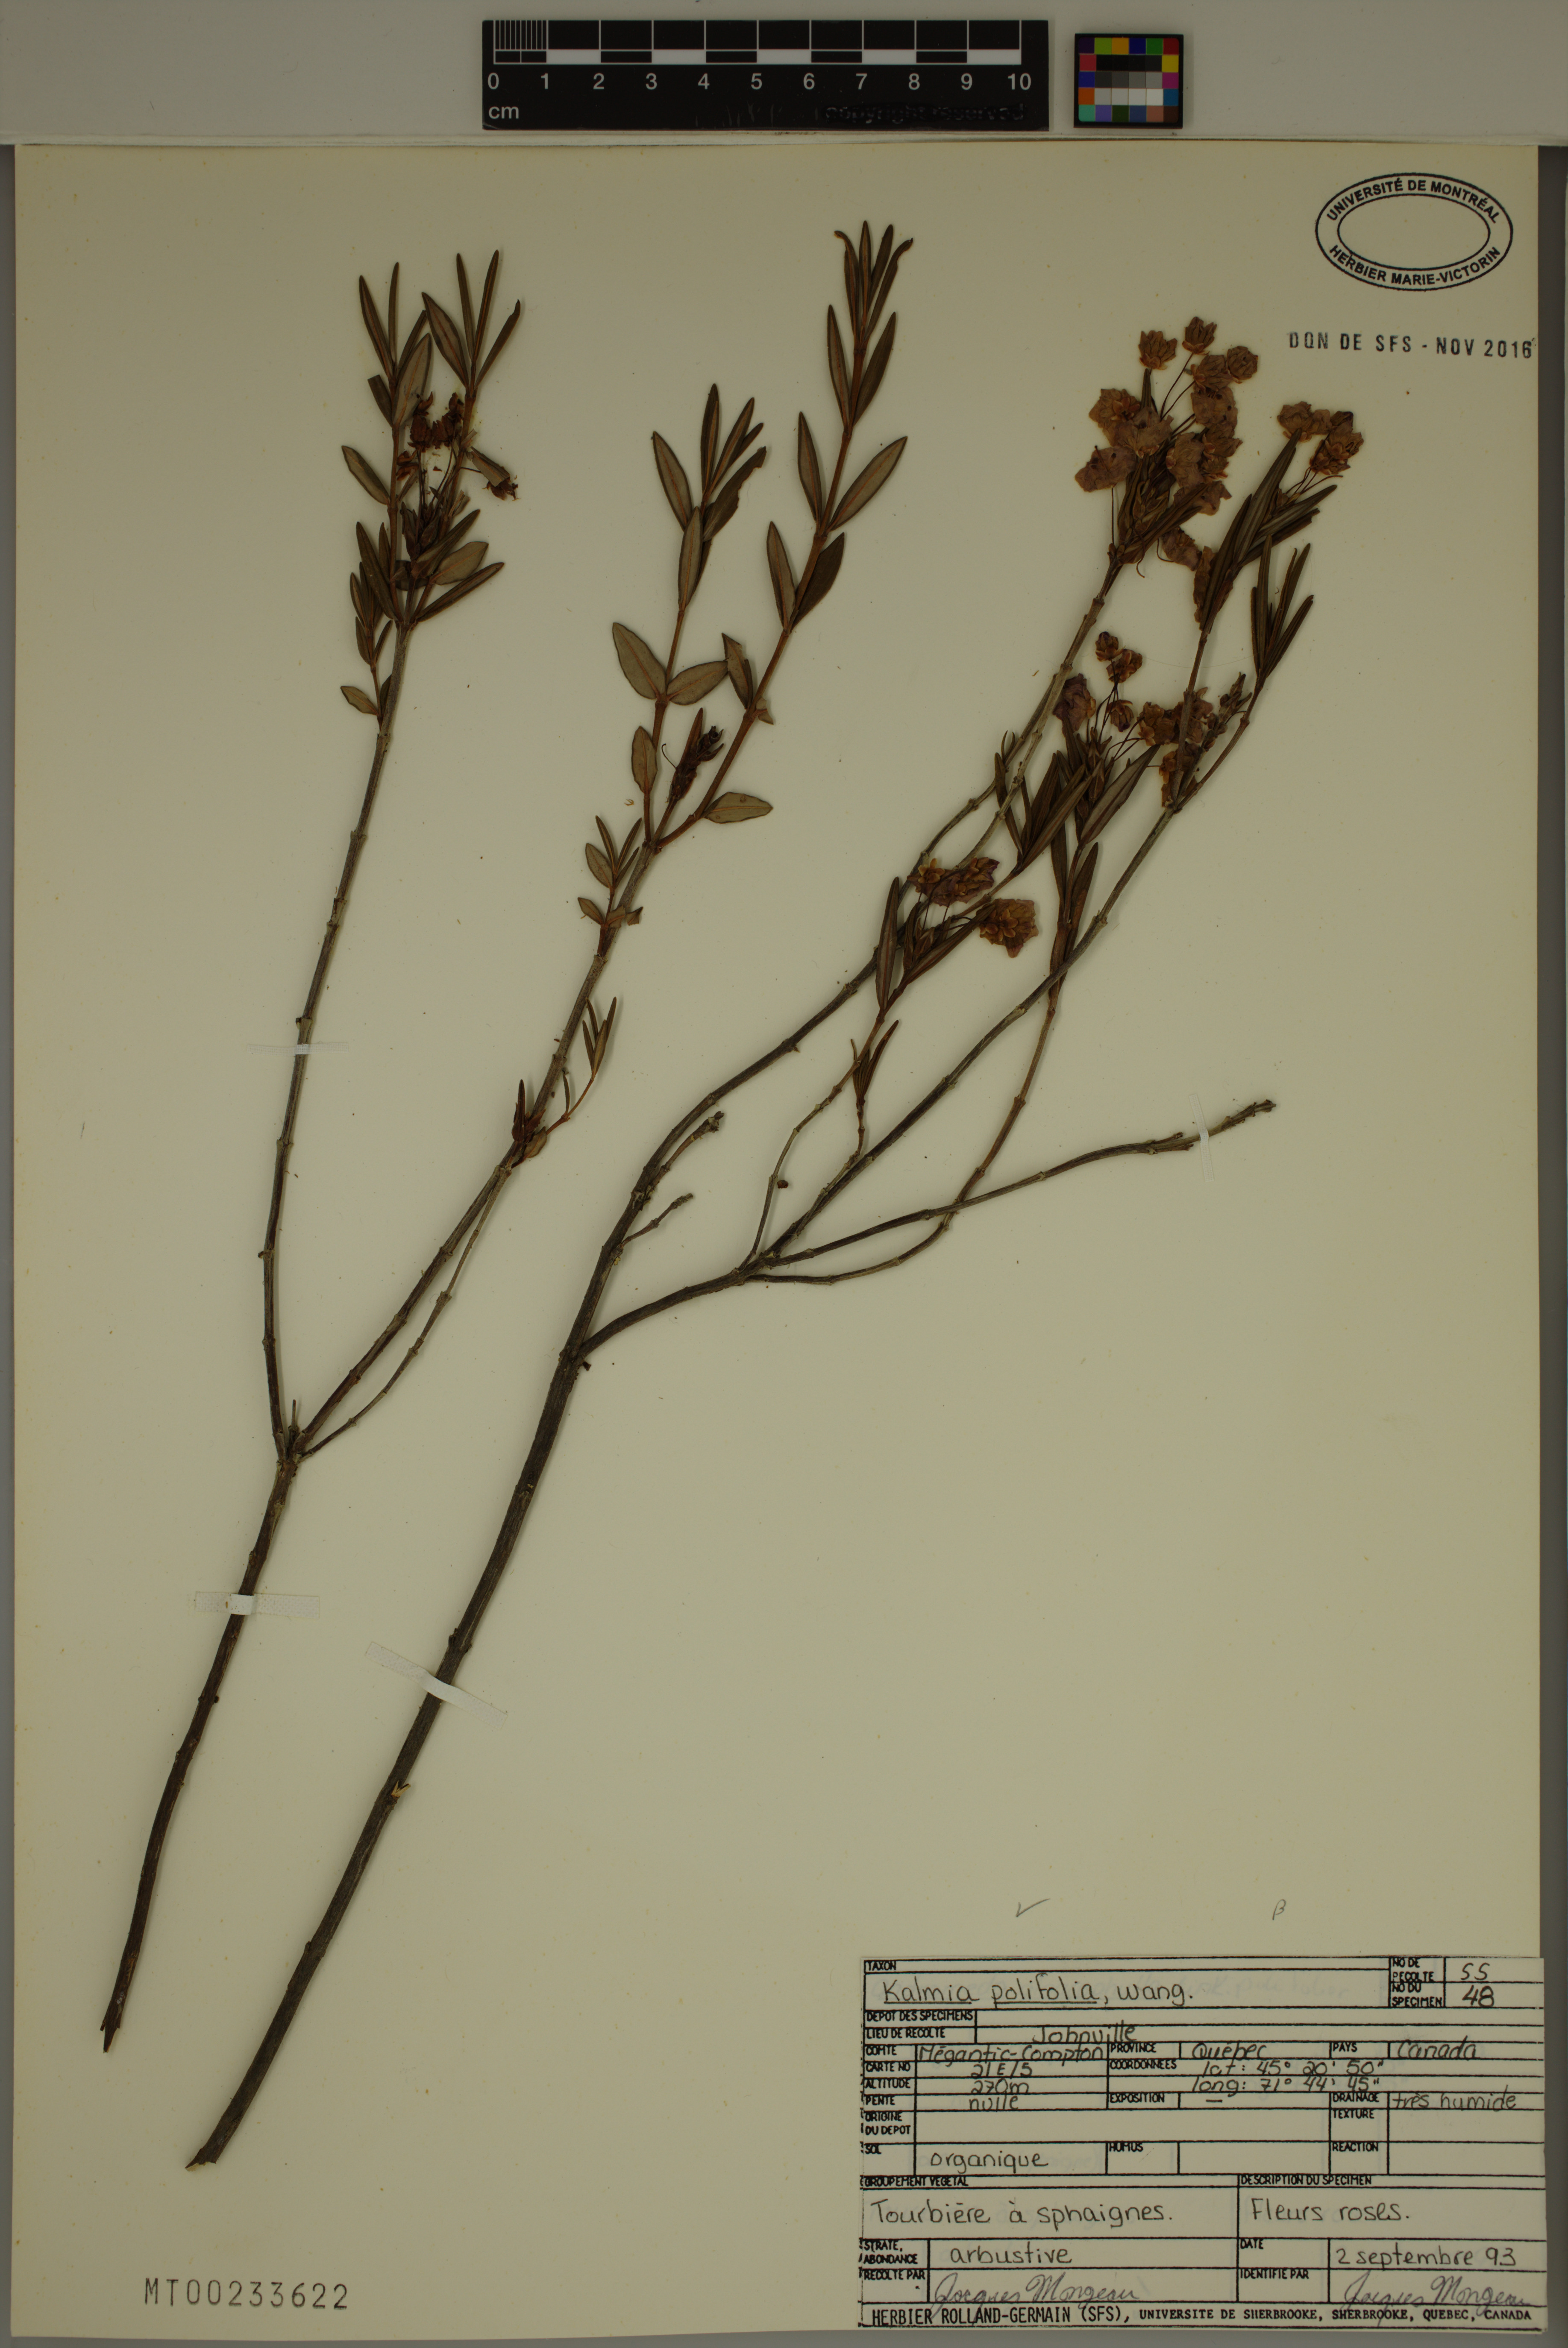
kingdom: Plantae
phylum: Tracheophyta
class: Magnoliopsida
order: Ericales
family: Ericaceae
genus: Kalmia
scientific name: Kalmia polifolia
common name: Bog-laurel
